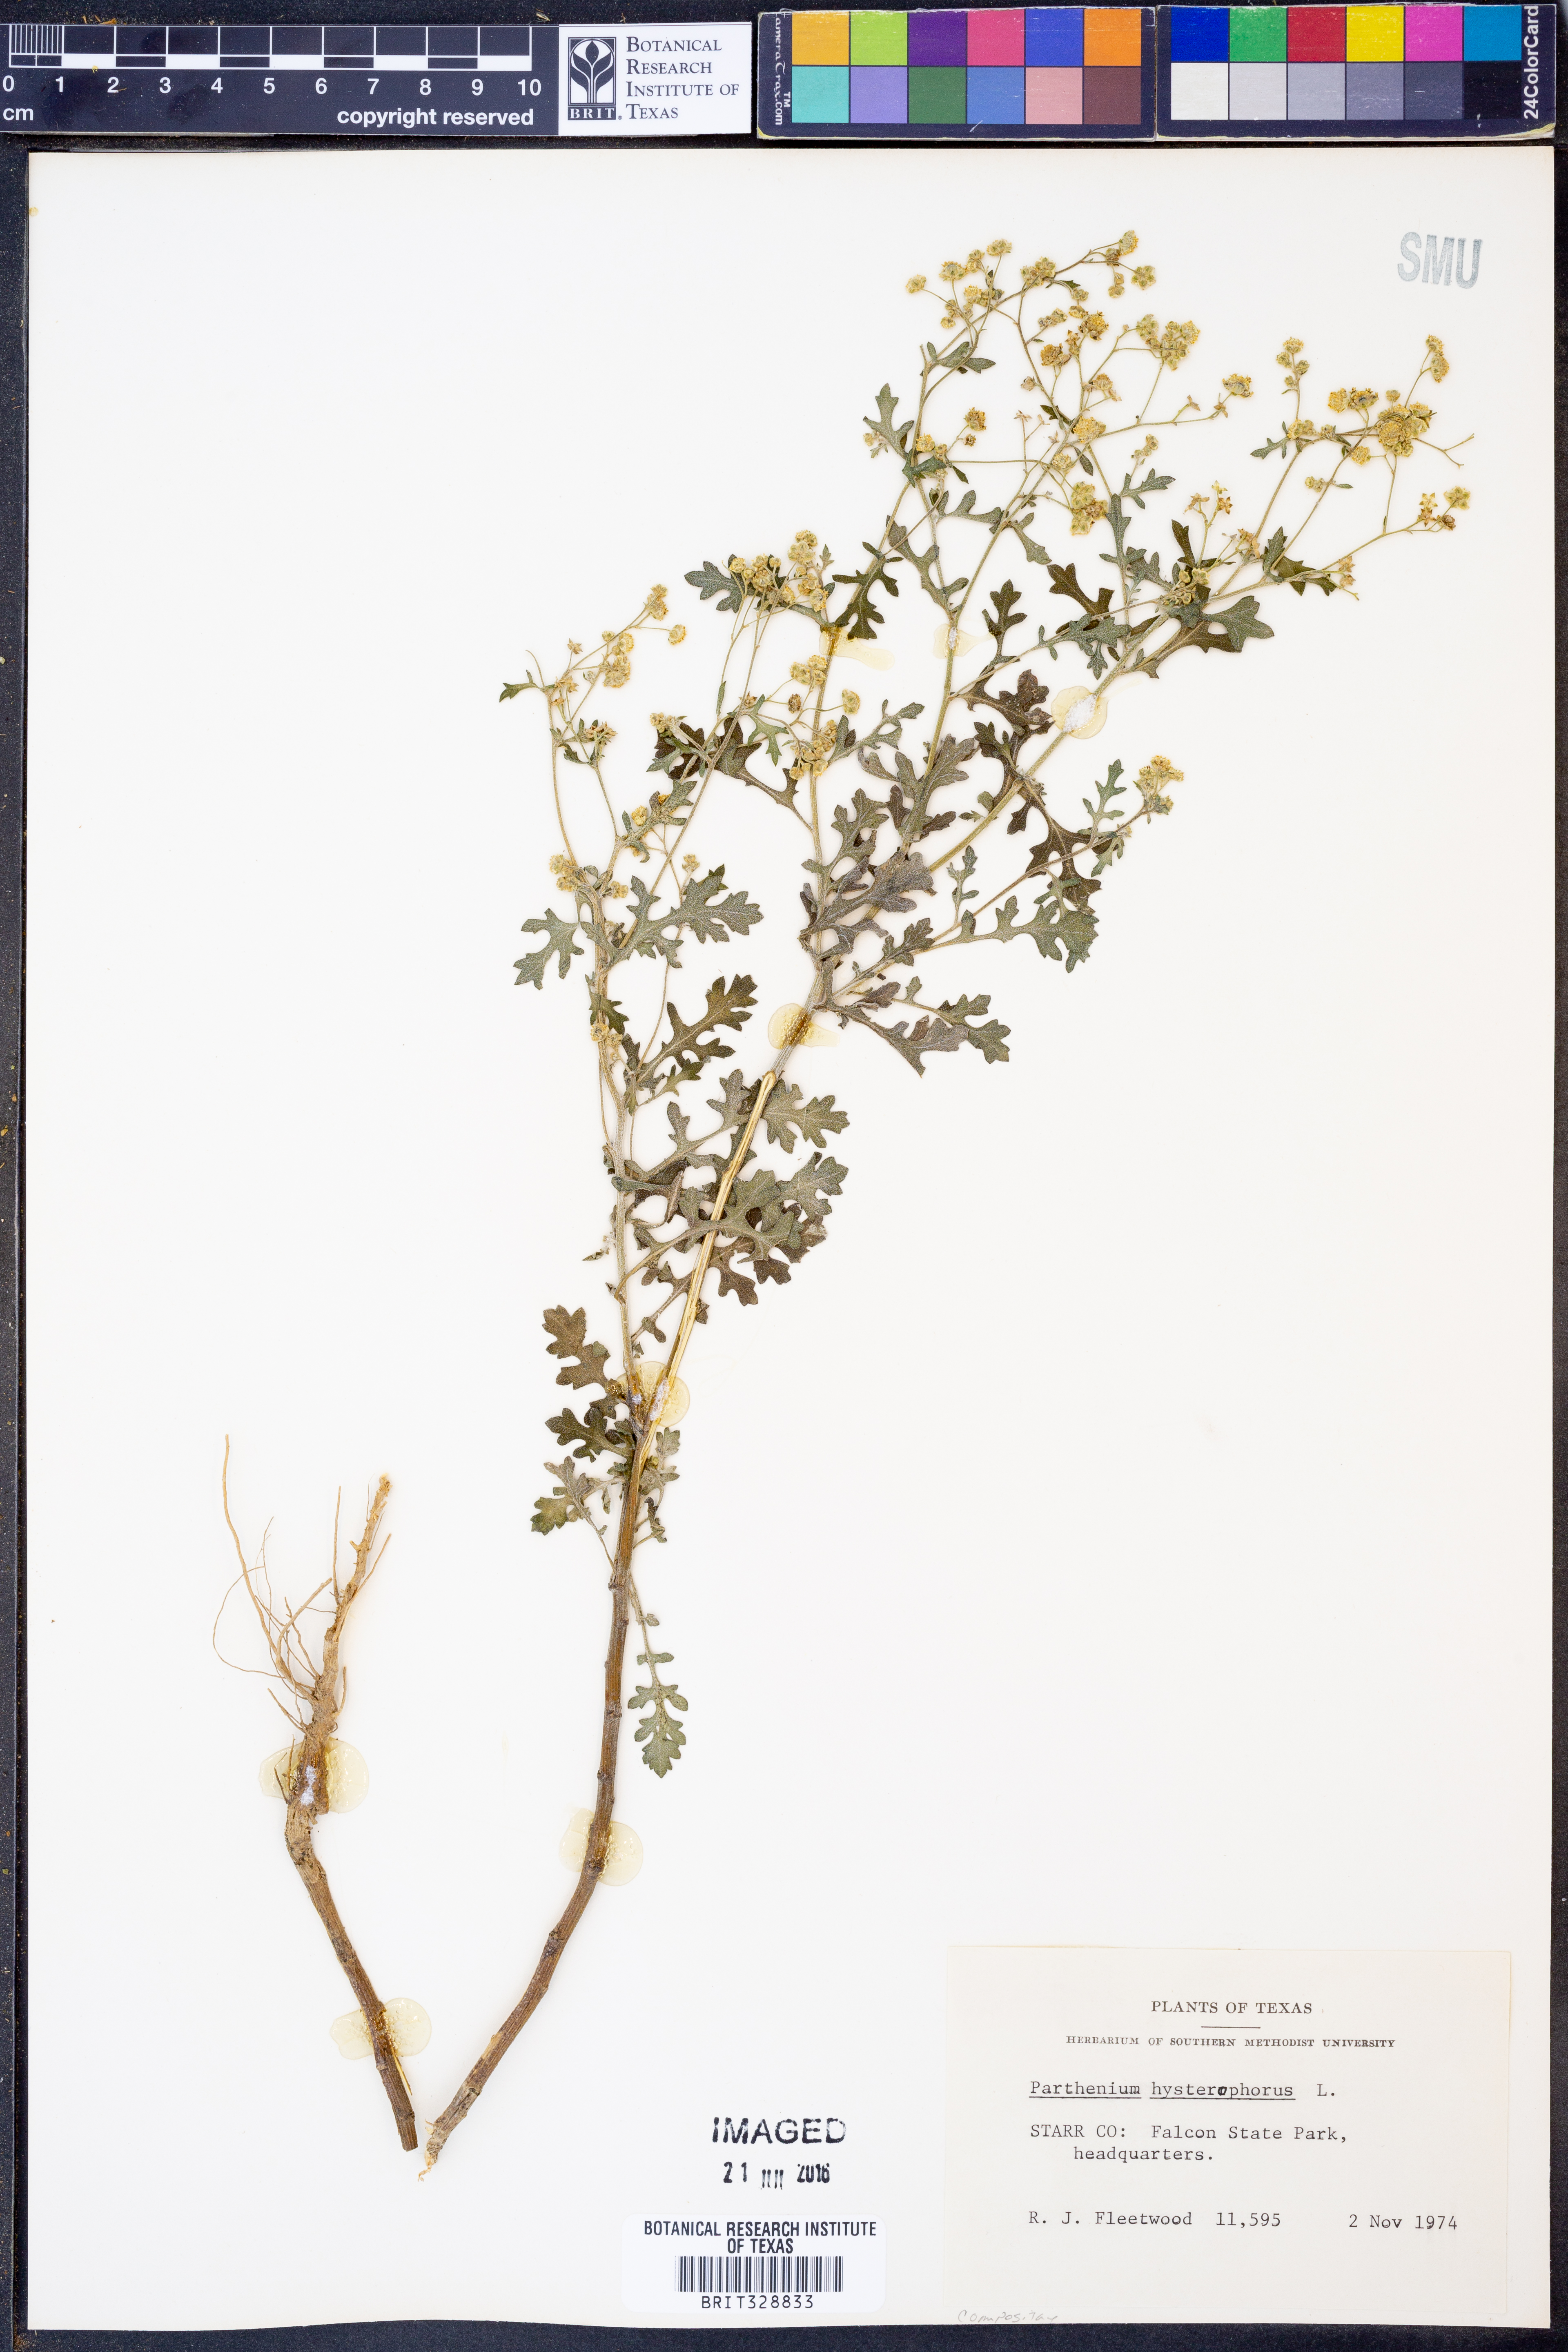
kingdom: Plantae
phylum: Tracheophyta
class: Magnoliopsida
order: Asterales
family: Asteraceae
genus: Parthenium
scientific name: Parthenium hysterophorus
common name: Santa maria feverfew
